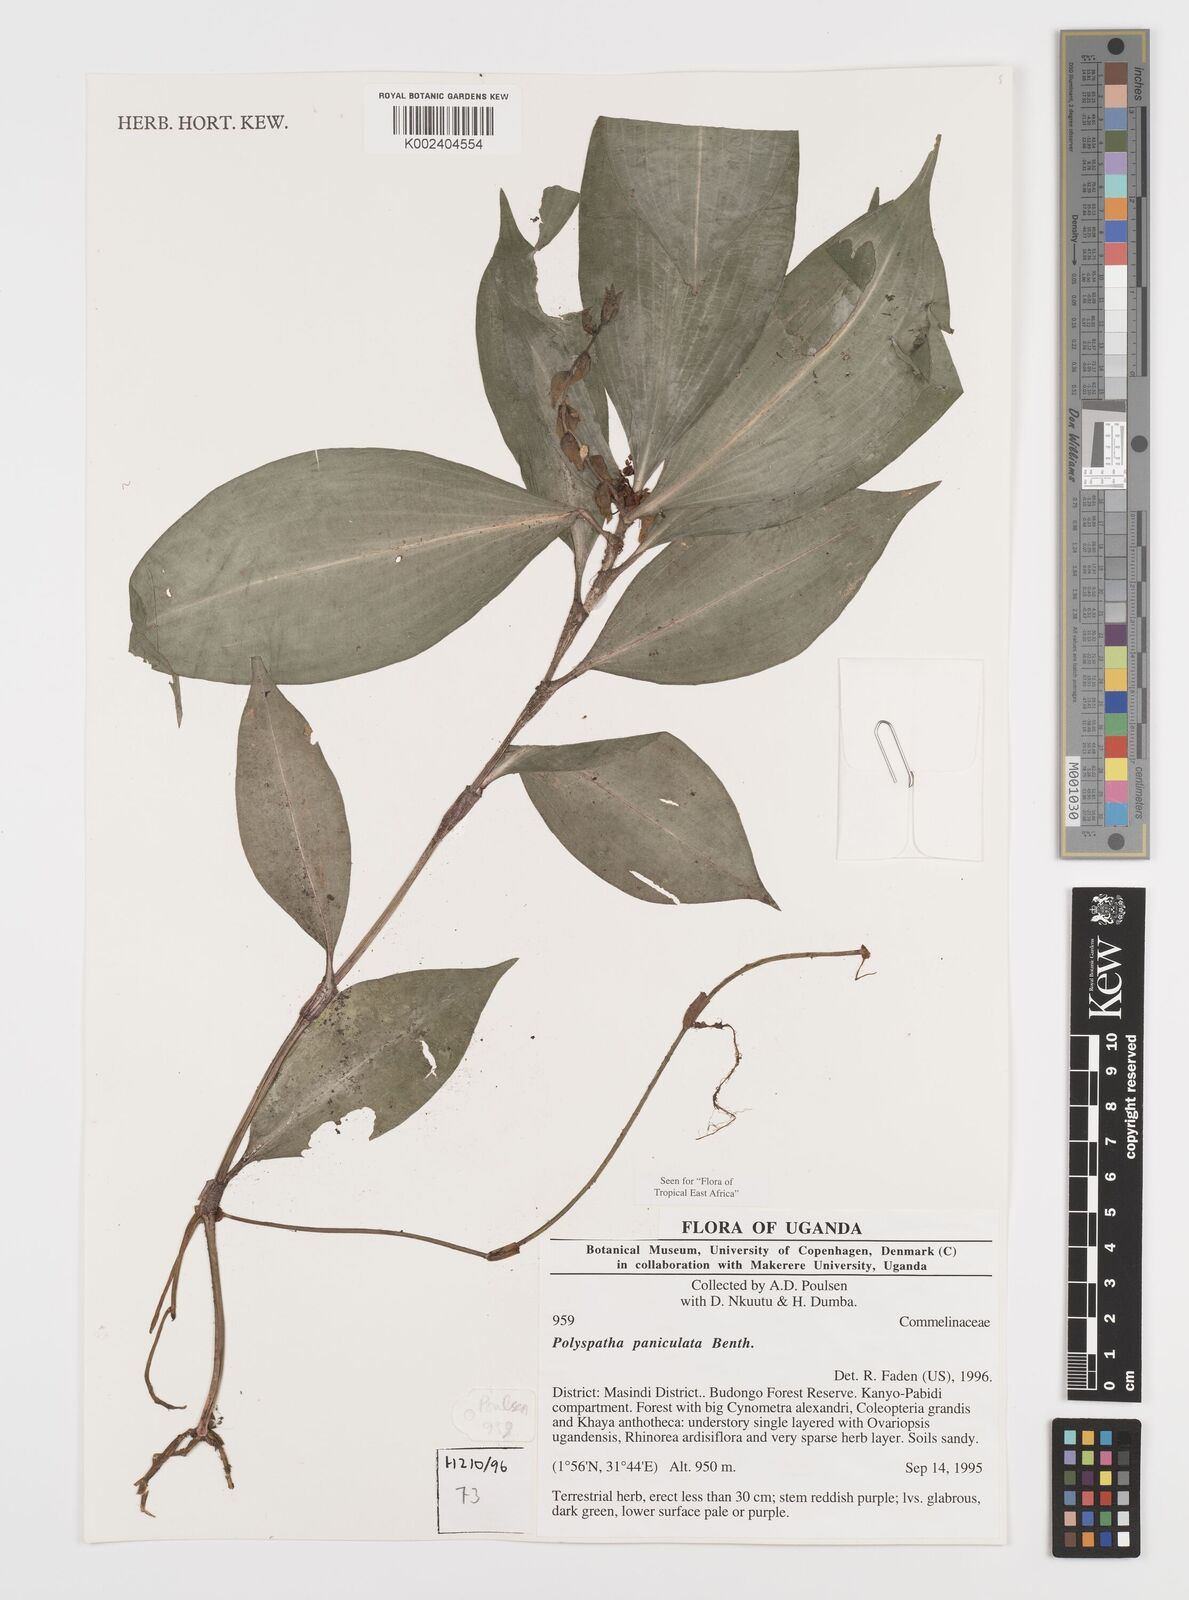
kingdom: Plantae
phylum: Tracheophyta
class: Liliopsida
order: Commelinales
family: Commelinaceae
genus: Polyspatha
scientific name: Polyspatha paniculata
